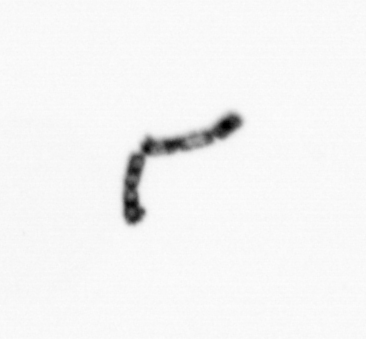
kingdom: Chromista
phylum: Ochrophyta
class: Bacillariophyceae
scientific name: Bacillariophyceae
